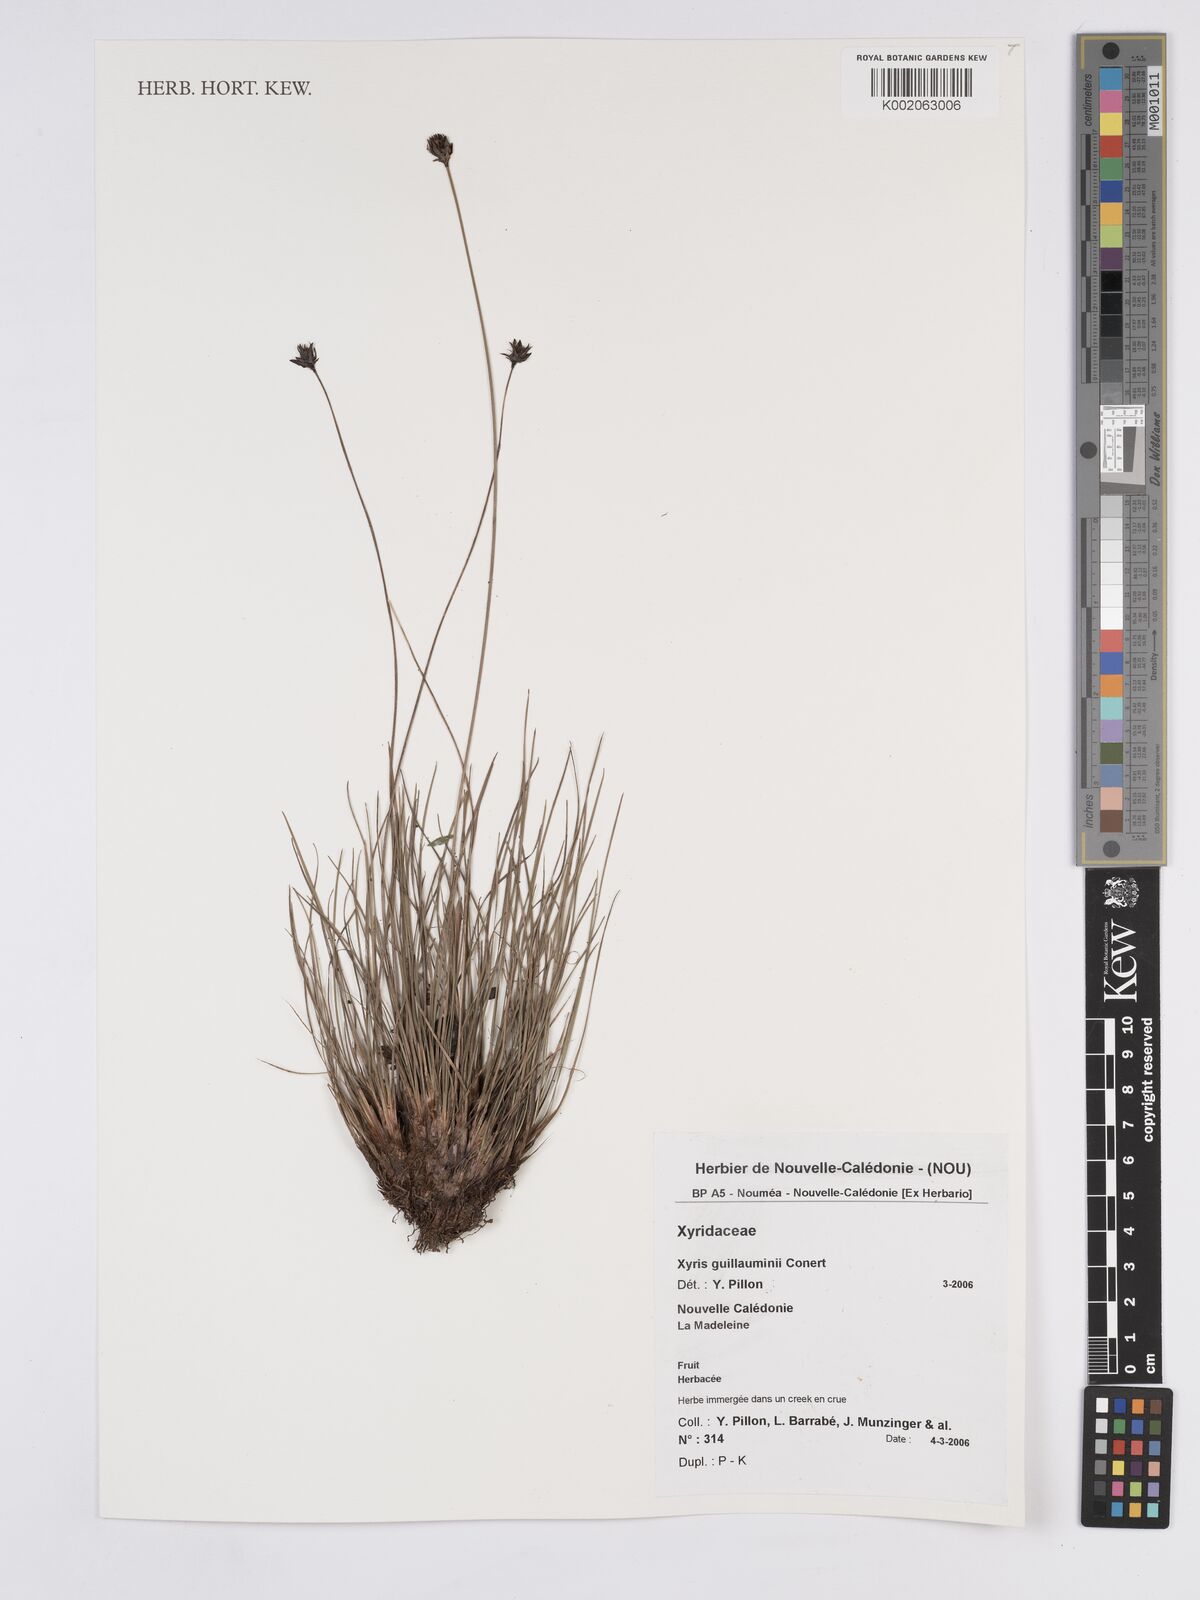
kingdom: Plantae
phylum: Tracheophyta
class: Liliopsida
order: Poales
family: Xyridaceae
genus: Xyris
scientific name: Xyris pancheri
